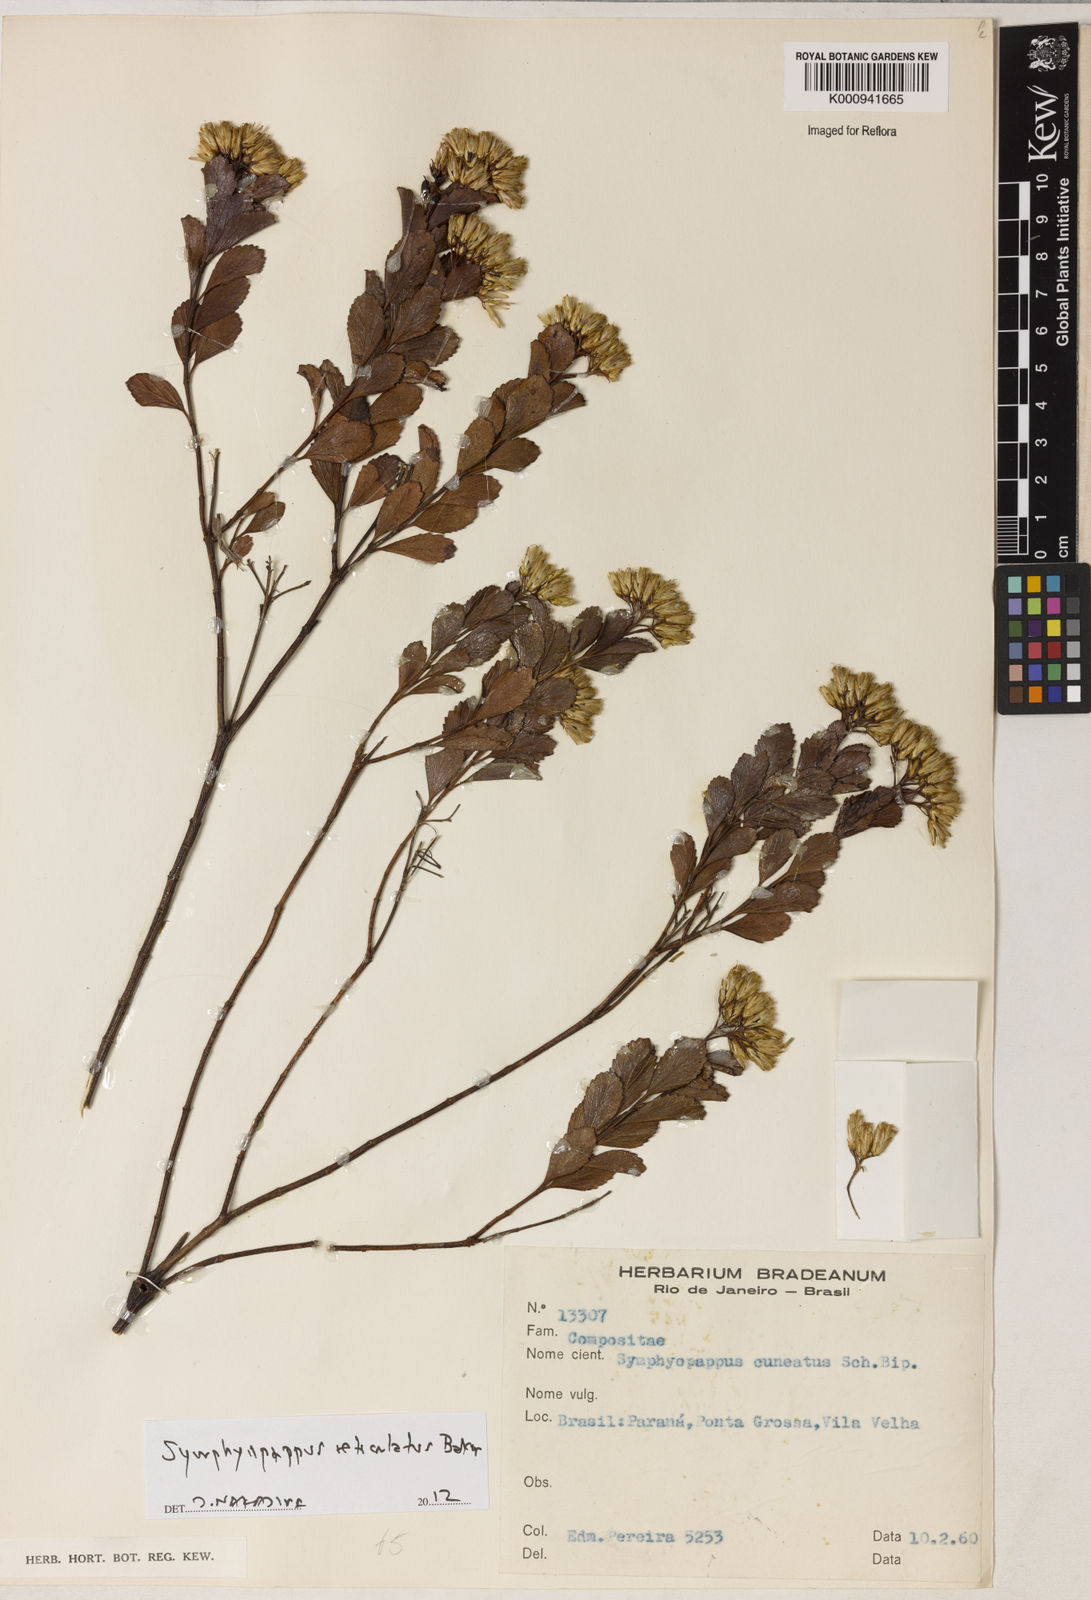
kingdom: Plantae
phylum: Tracheophyta
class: Magnoliopsida
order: Asterales
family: Asteraceae
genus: Symphyopappus
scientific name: Symphyopappus
